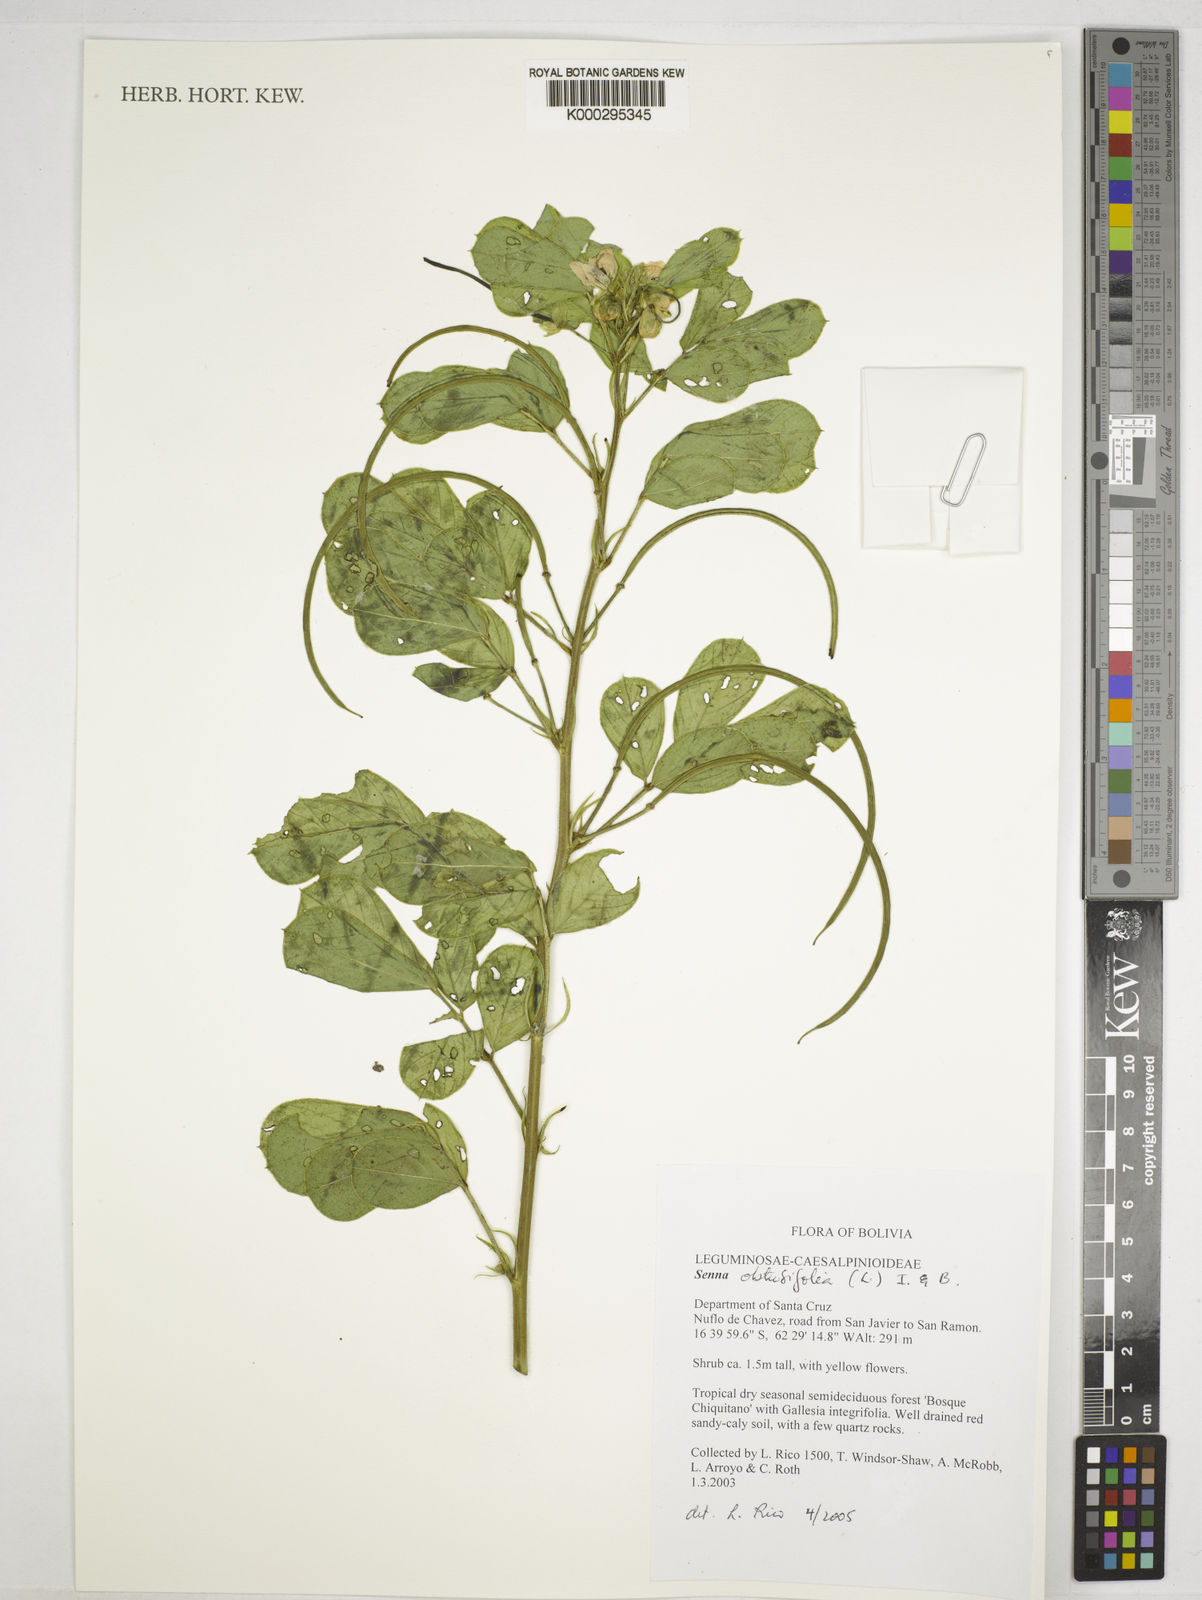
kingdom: Plantae
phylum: Tracheophyta
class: Magnoliopsida
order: Fabales
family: Fabaceae
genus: Senna
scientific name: Senna obtusifolia
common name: Java-bean
